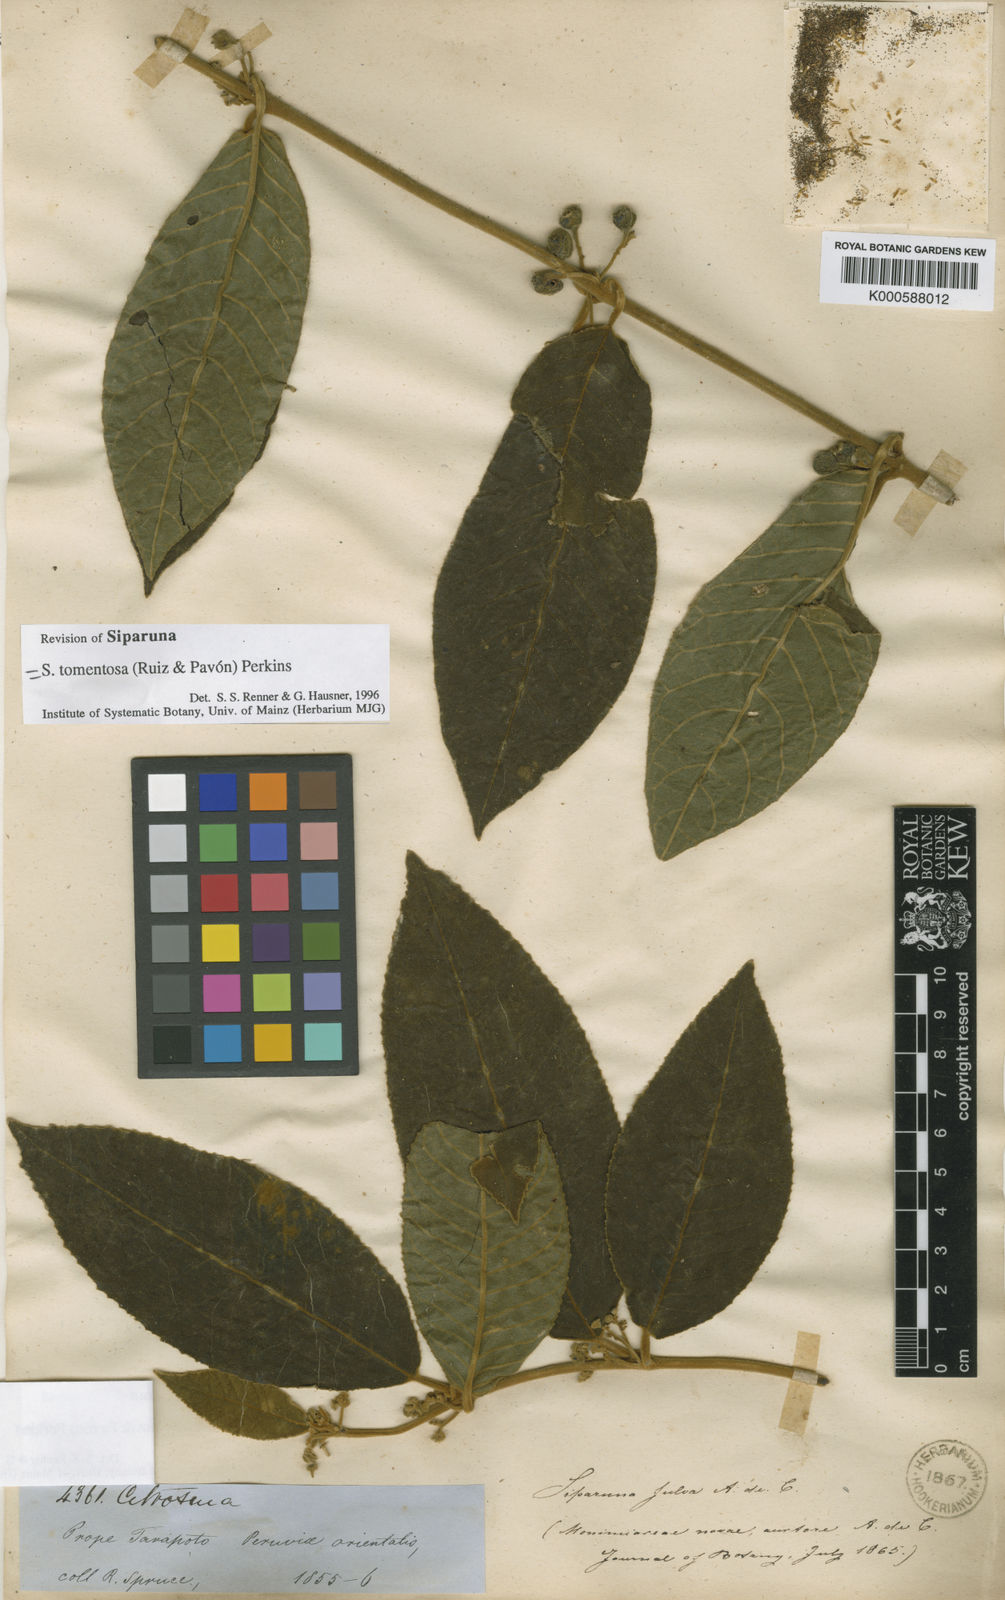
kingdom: Plantae
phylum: Tracheophyta
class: Magnoliopsida
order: Laurales
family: Siparunaceae
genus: Siparuna
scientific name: Siparuna tomentosa
